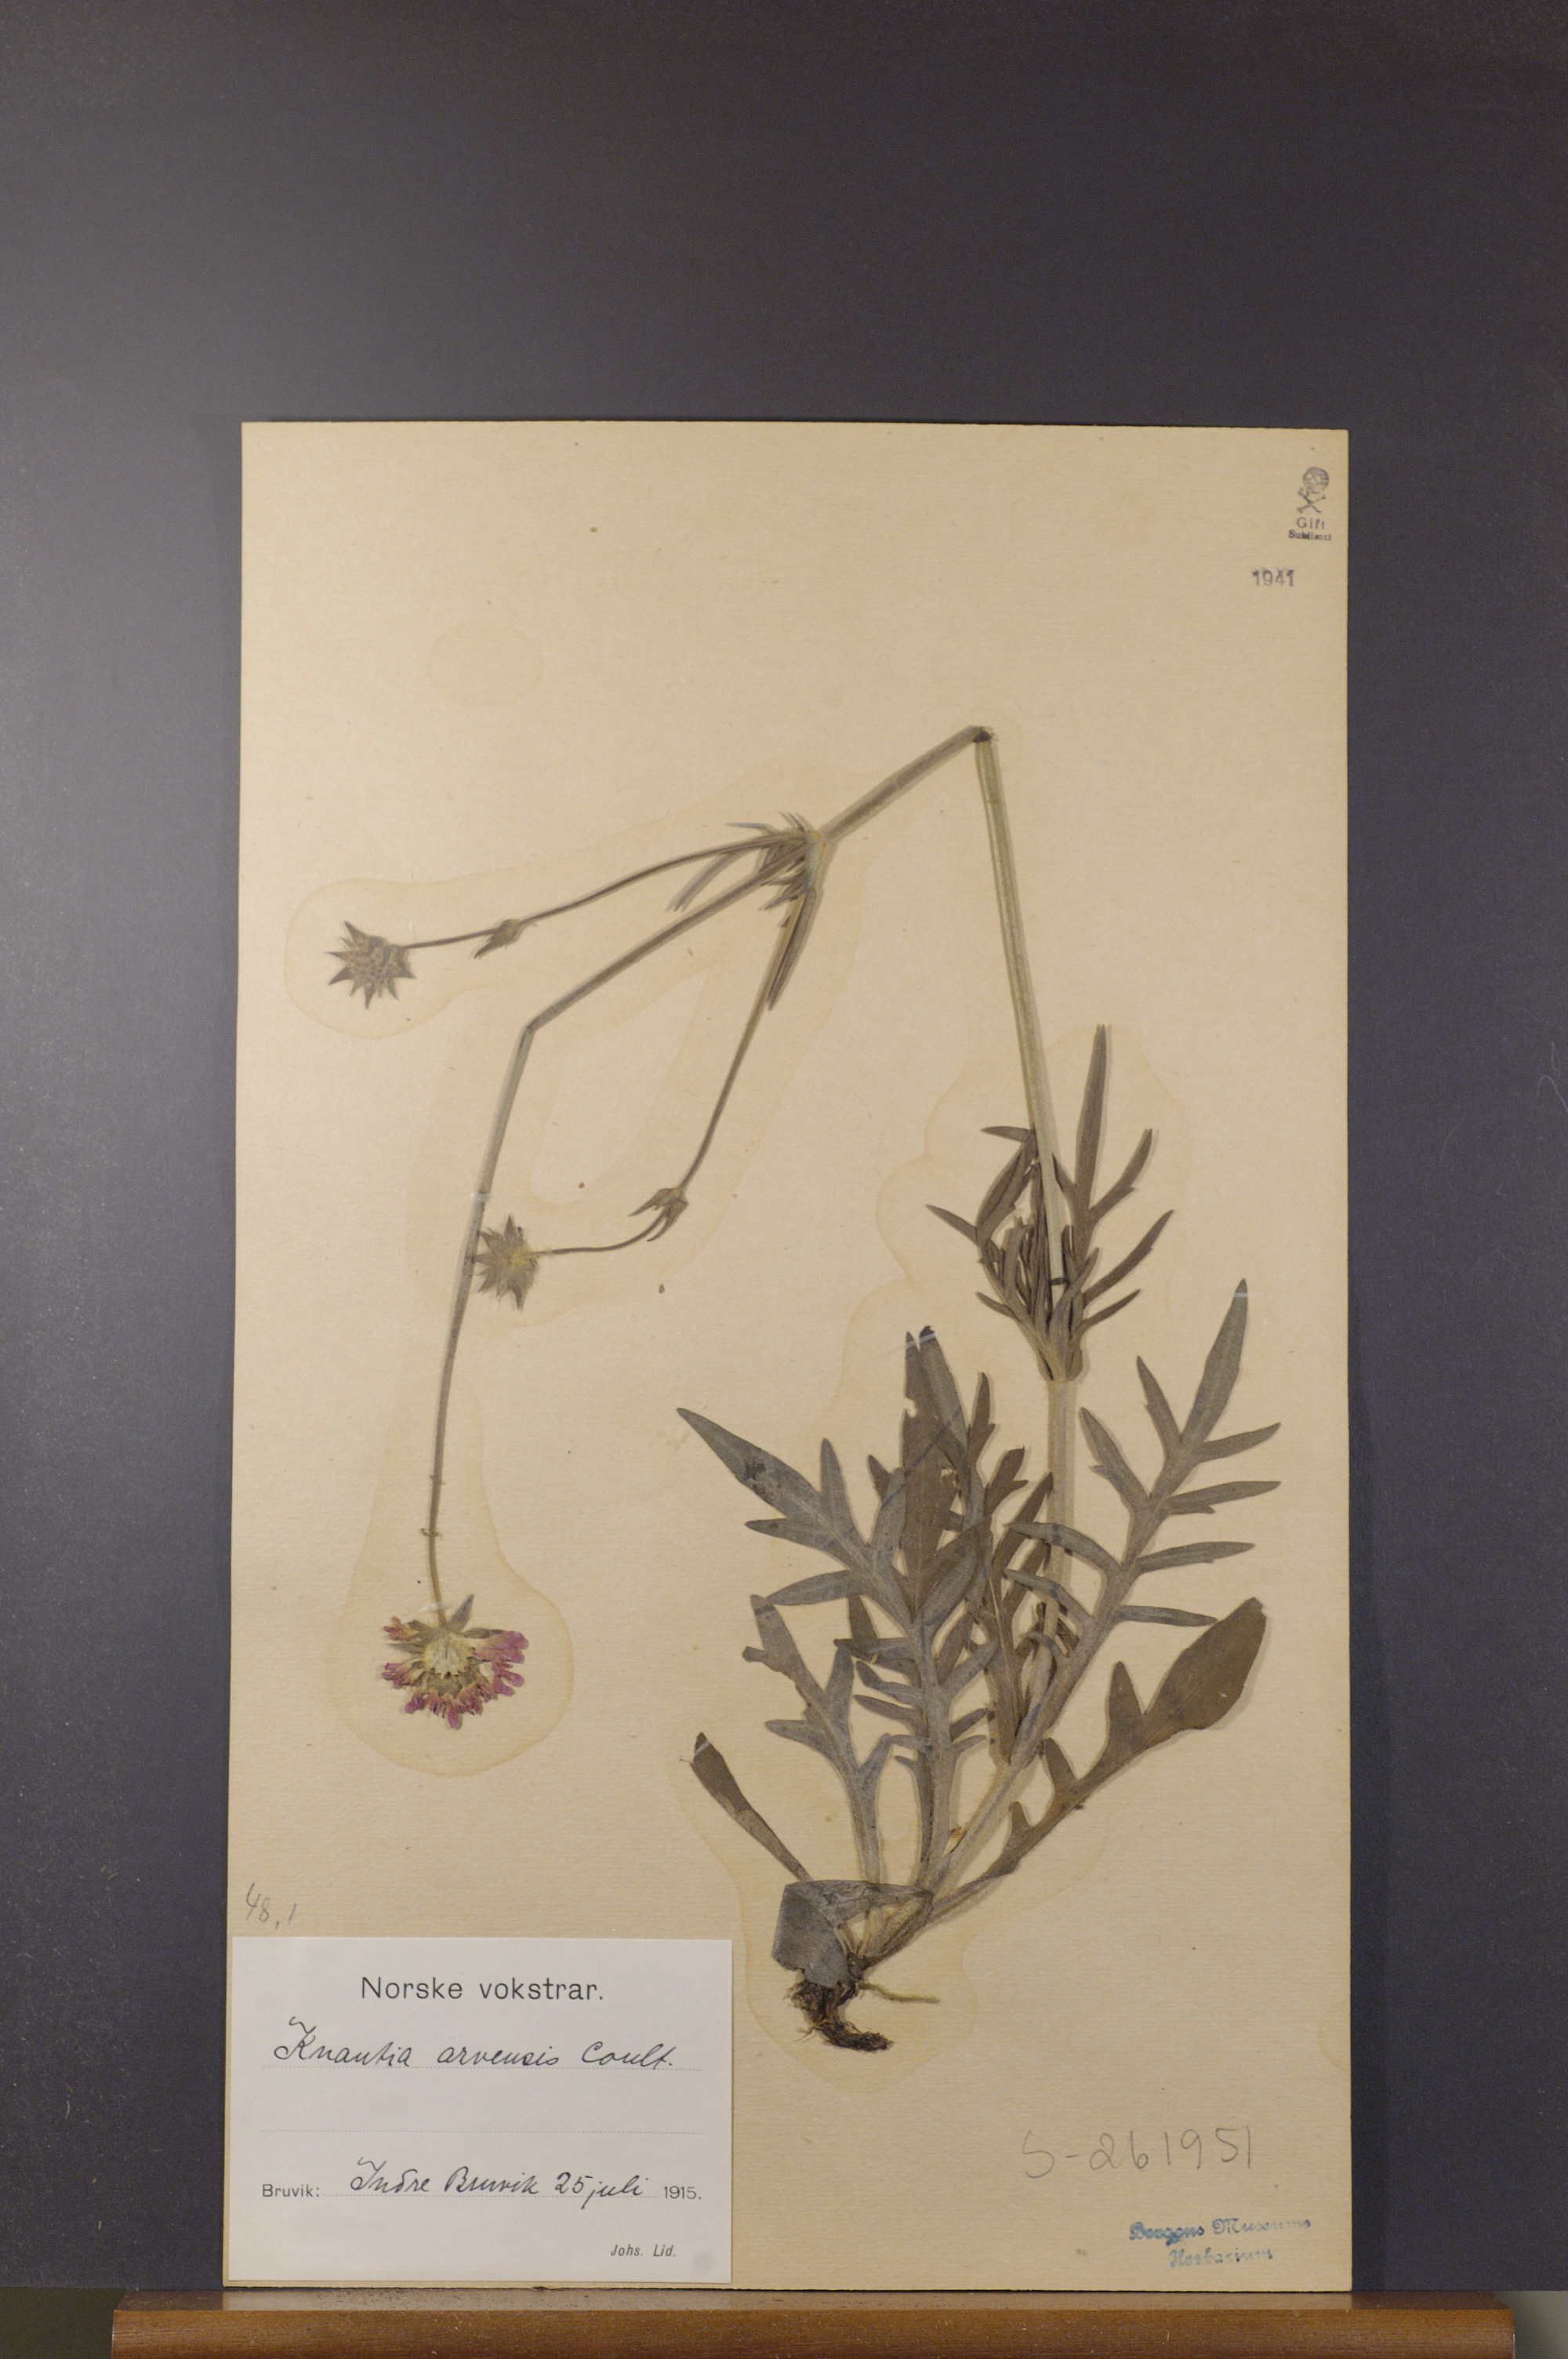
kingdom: Plantae
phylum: Tracheophyta
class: Magnoliopsida
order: Dipsacales
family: Caprifoliaceae
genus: Knautia
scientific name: Knautia arvensis
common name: Field scabiosa
